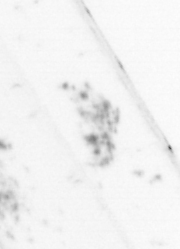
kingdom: Animalia
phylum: Annelida
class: Polychaeta
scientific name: Polychaeta
